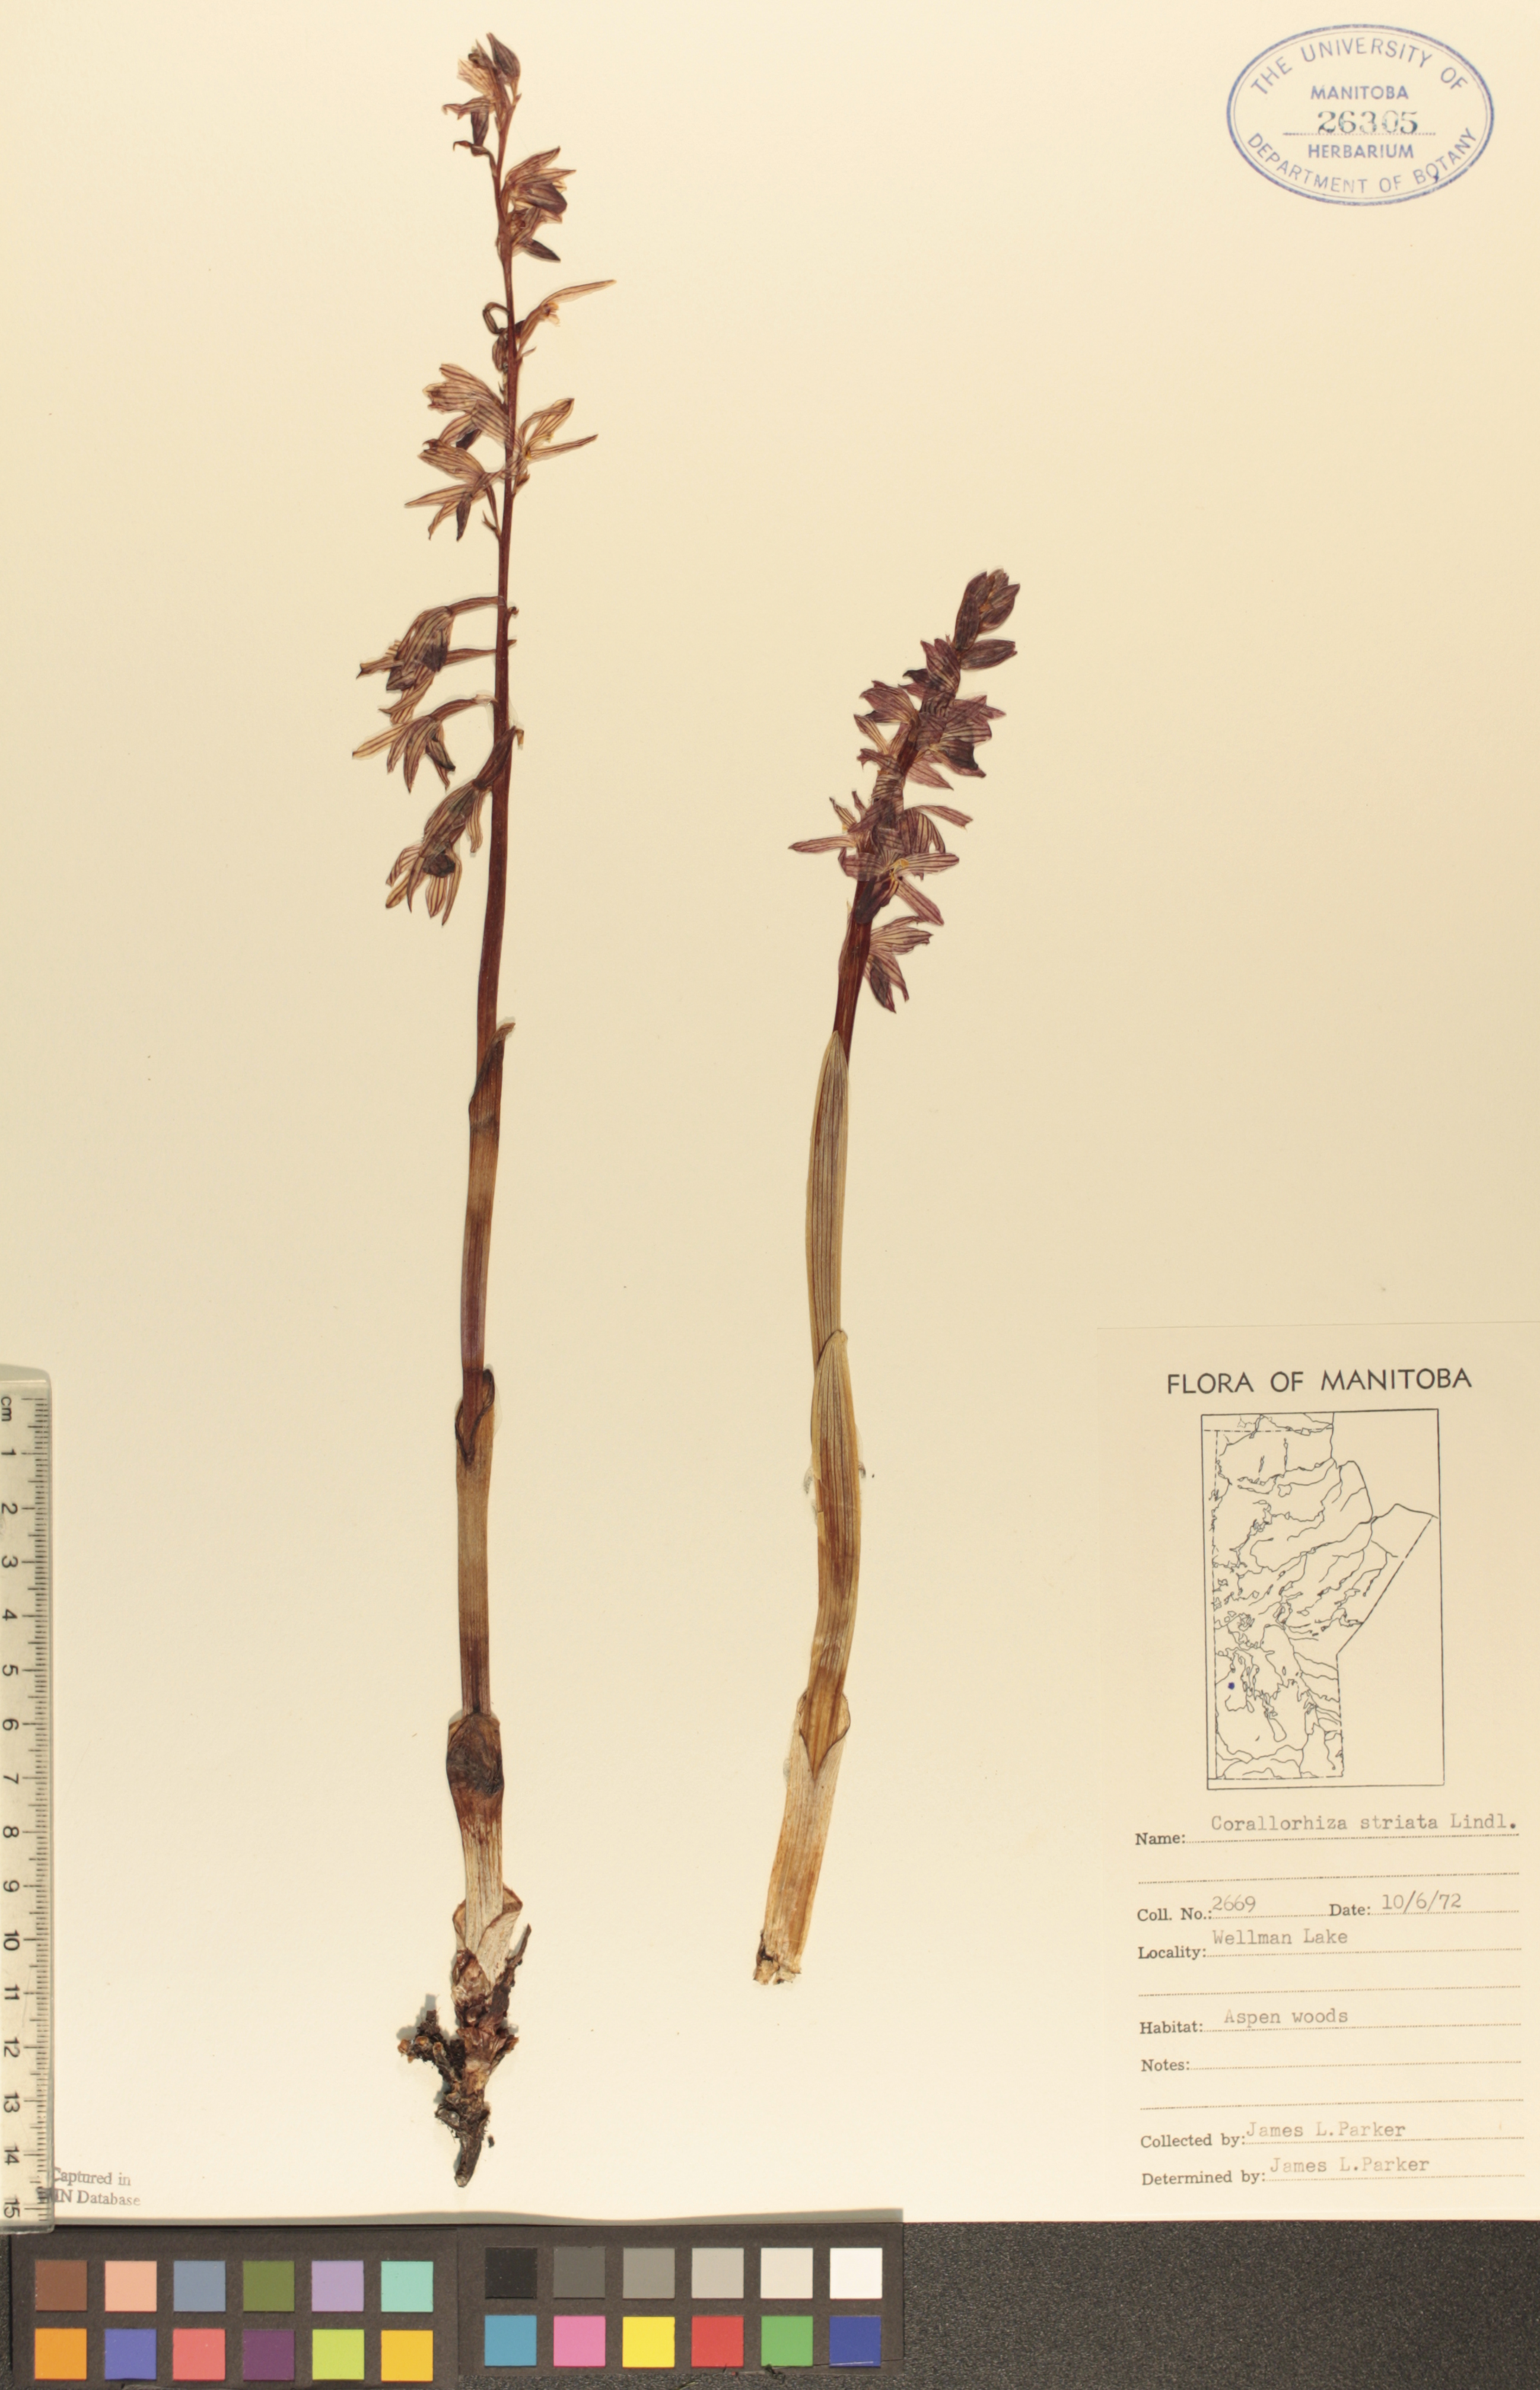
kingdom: Plantae
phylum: Tracheophyta
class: Liliopsida
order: Asparagales
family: Orchidaceae
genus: Corallorhiza
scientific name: Corallorhiza striata
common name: Hooded coralroot
